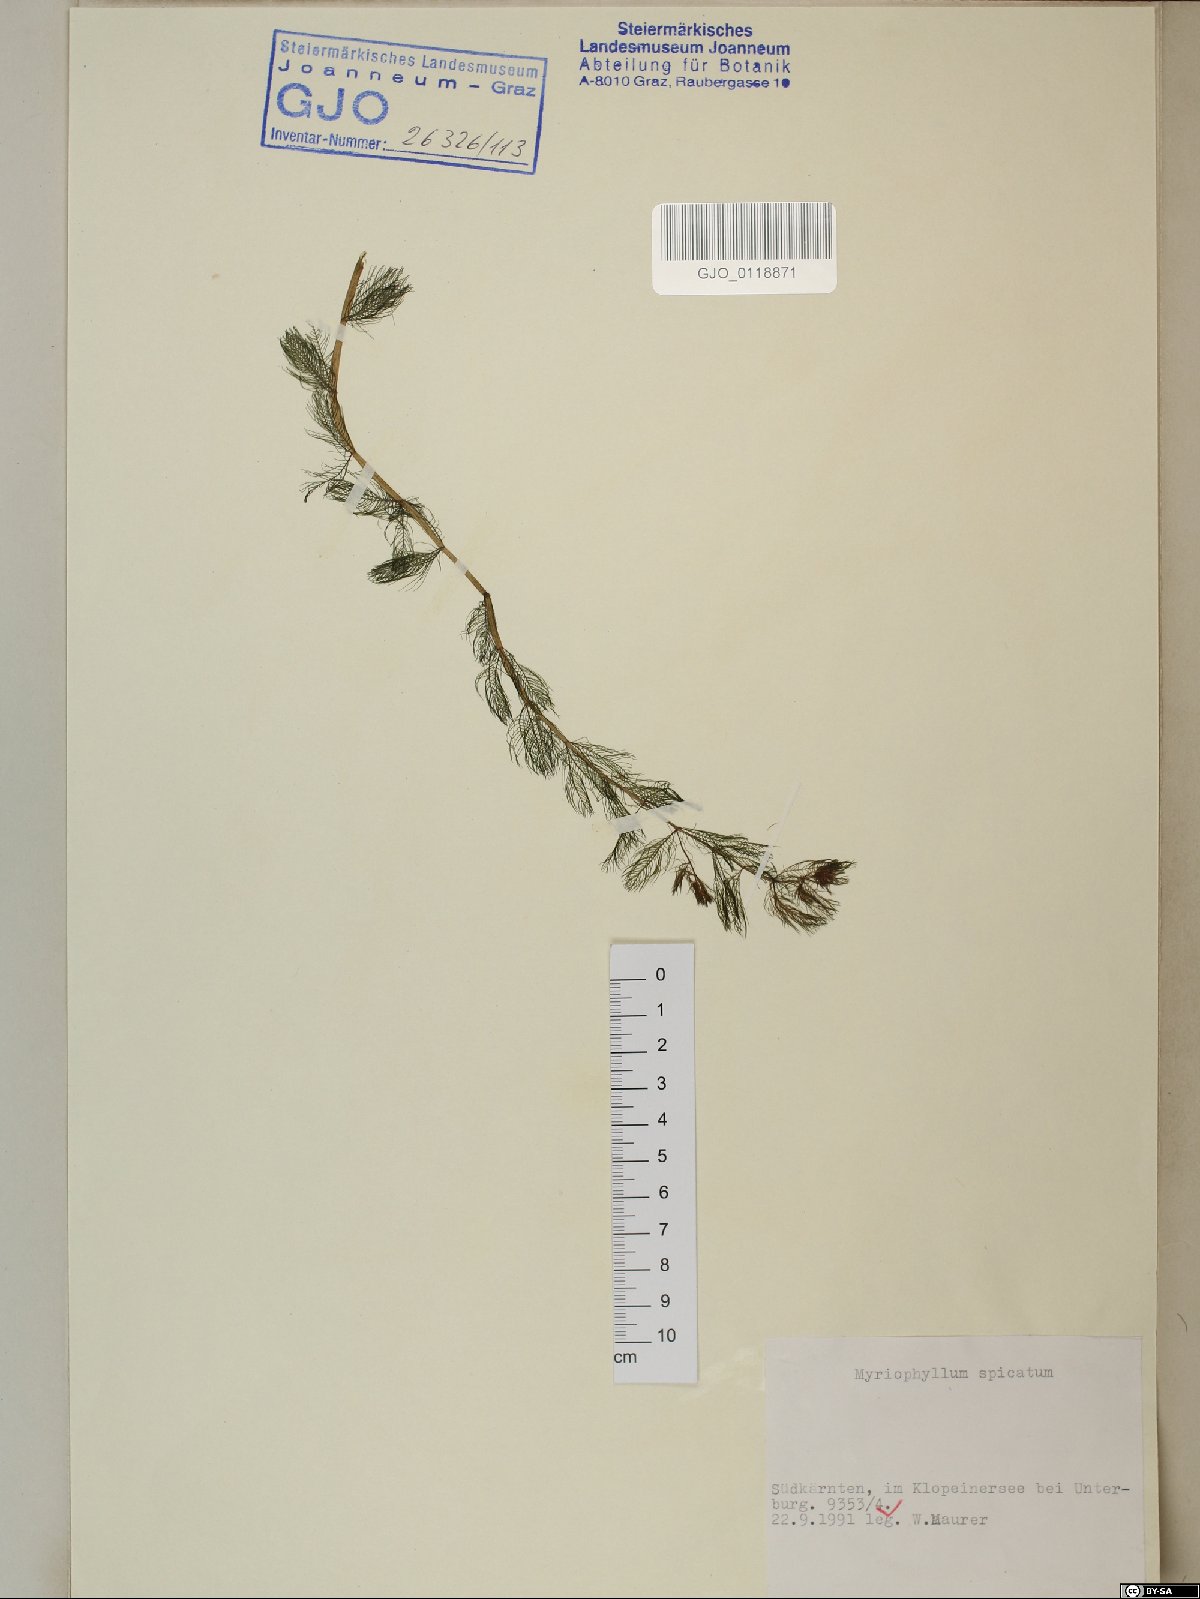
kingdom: Plantae
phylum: Tracheophyta
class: Magnoliopsida
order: Saxifragales
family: Haloragaceae
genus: Myriophyllum
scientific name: Myriophyllum spicatum
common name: Spiked water-milfoil
